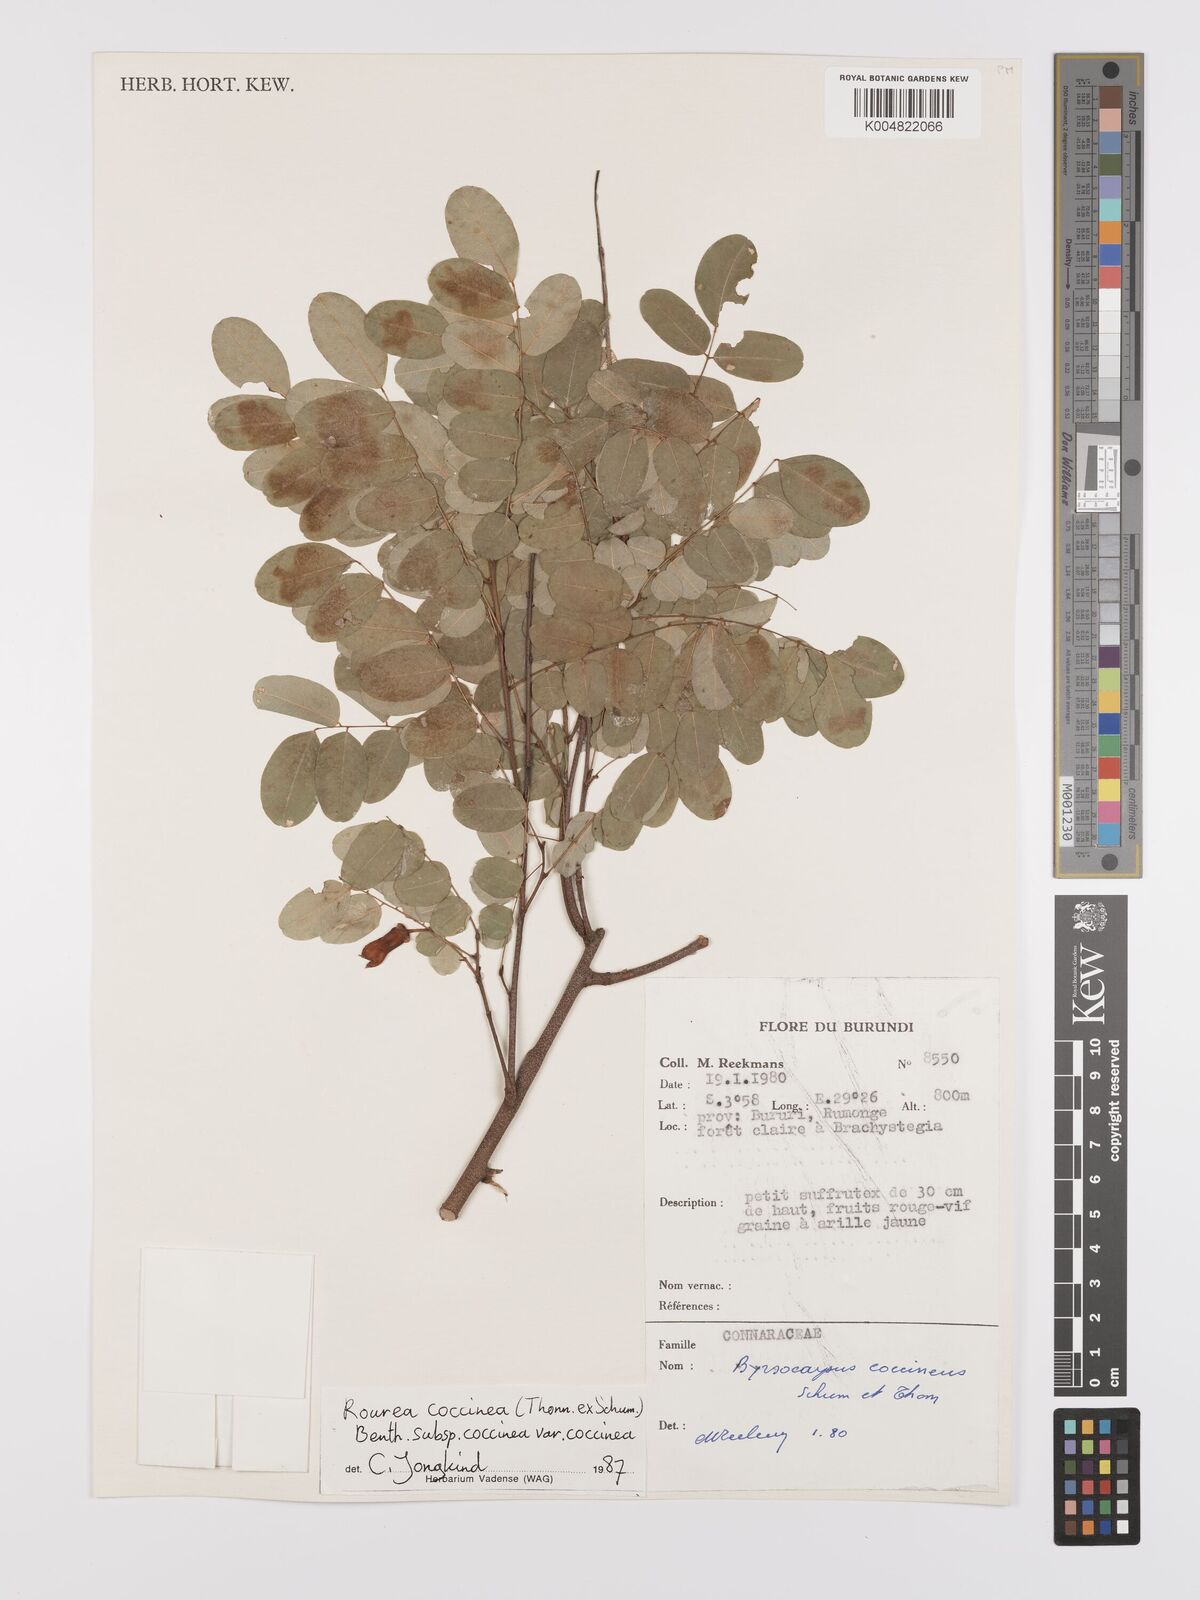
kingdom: Plantae
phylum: Tracheophyta
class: Magnoliopsida
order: Oxalidales
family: Connaraceae
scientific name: Connaraceae
